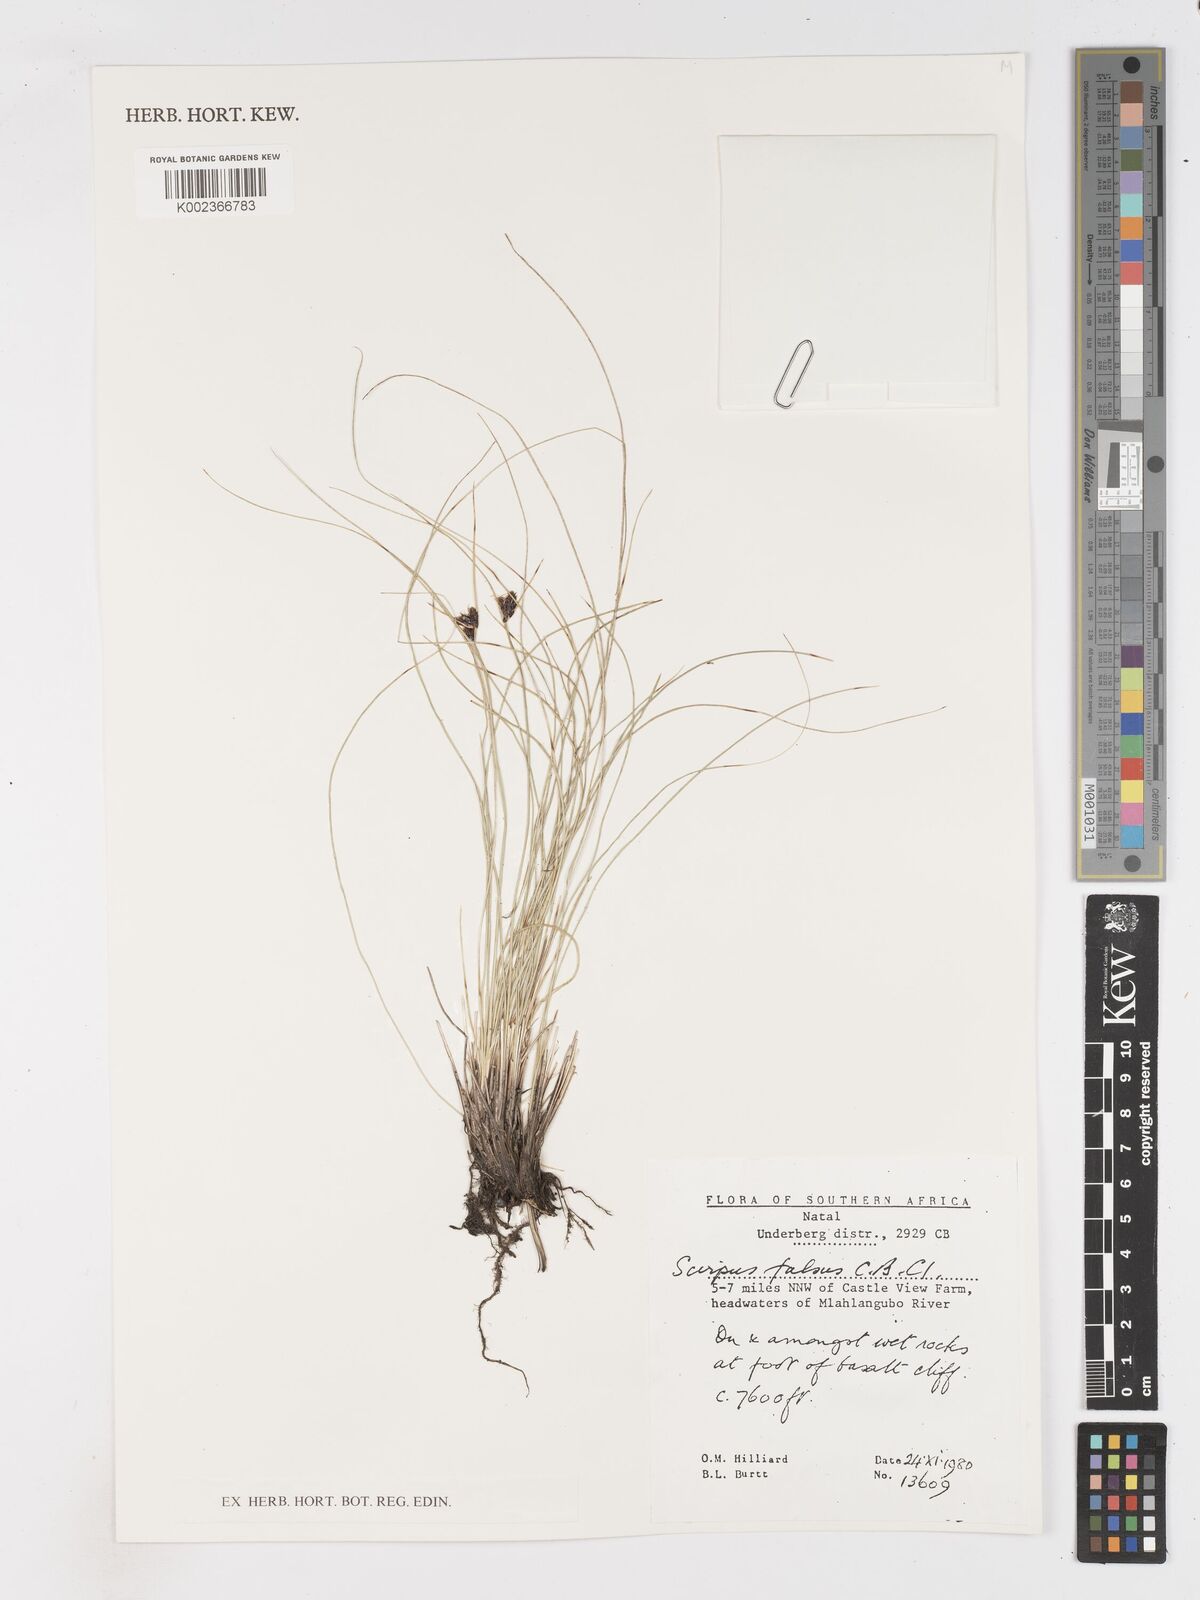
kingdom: Plantae
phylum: Tracheophyta
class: Liliopsida
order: Poales
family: Cyperaceae
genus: Dracoscirpoides
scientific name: Dracoscirpoides falsa
